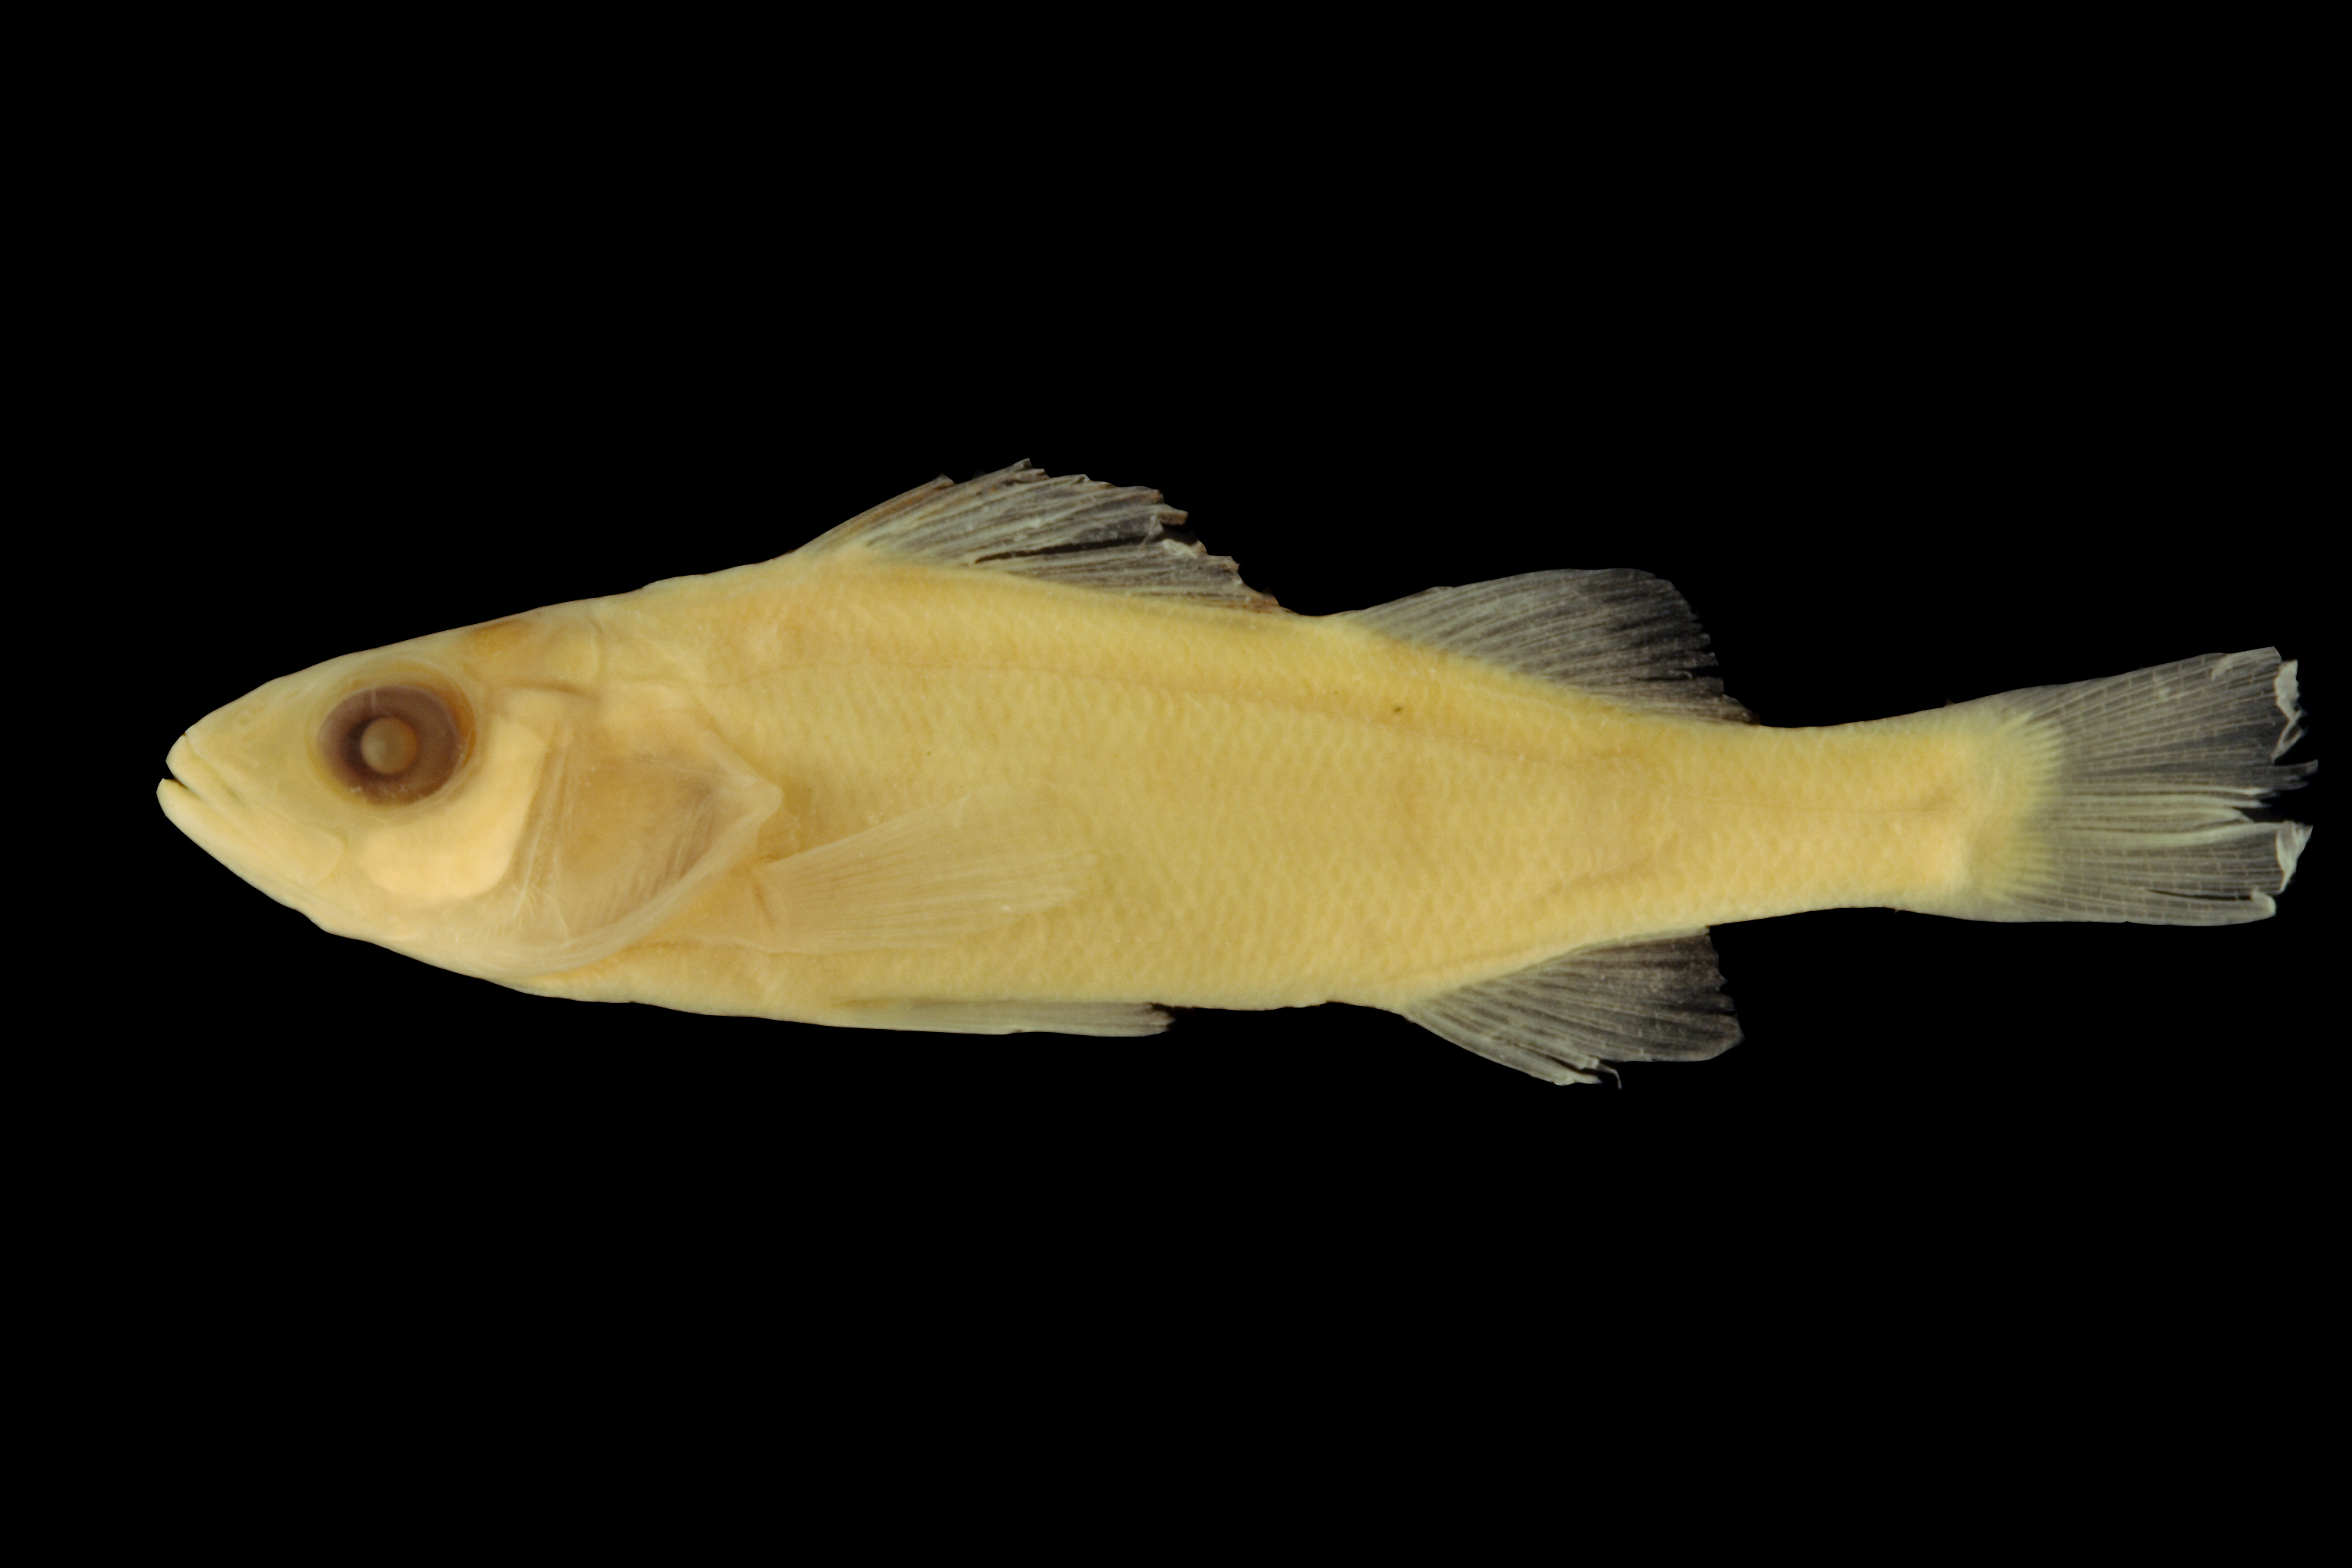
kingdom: Animalia
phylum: Chordata
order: Perciformes
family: Percidae
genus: Perca
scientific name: Perca flavescens
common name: Yellow perch
